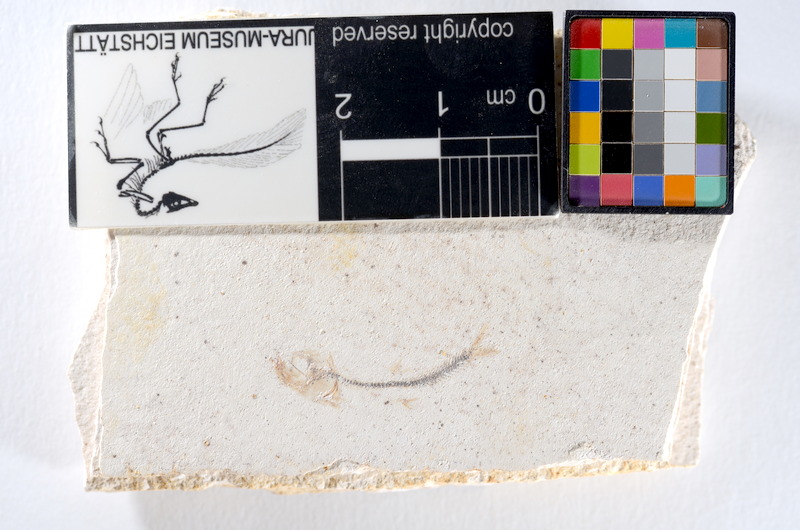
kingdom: Animalia
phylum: Chordata
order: Salmoniformes
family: Orthogonikleithridae
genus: Orthogonikleithrus
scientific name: Orthogonikleithrus hoelli
